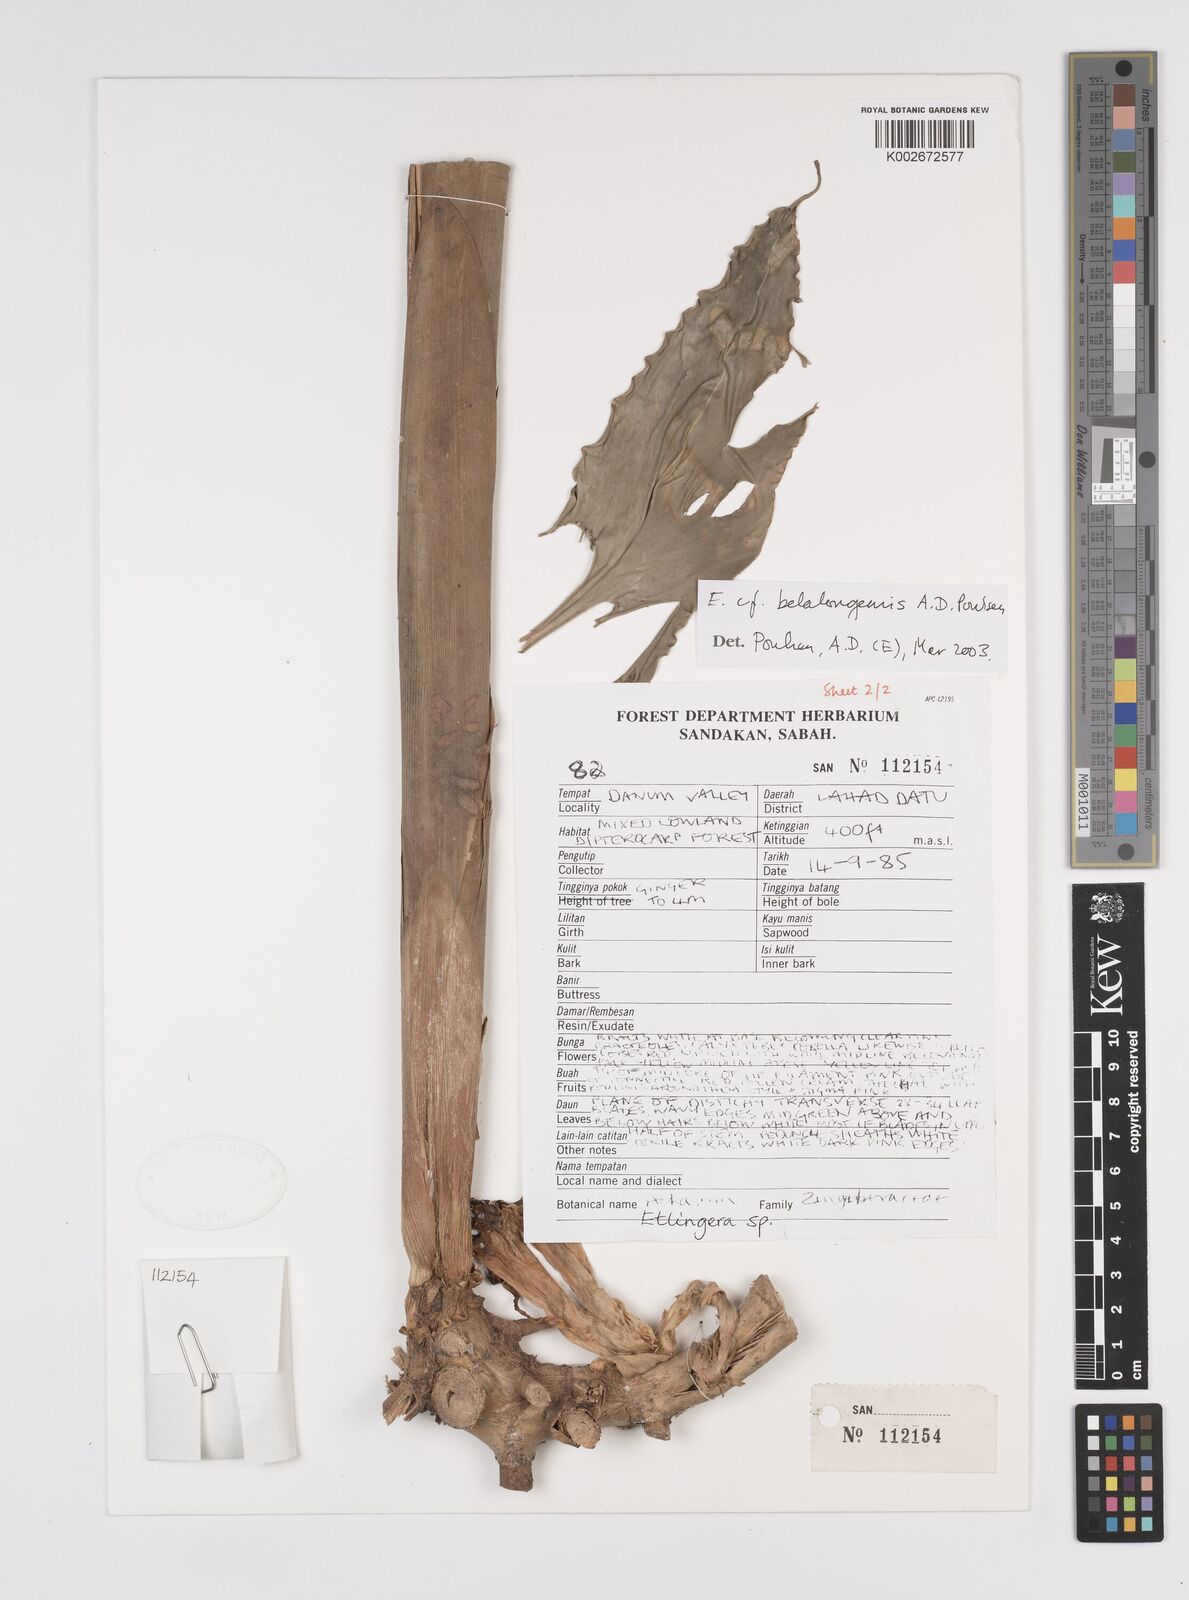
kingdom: Plantae
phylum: Tracheophyta
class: Liliopsida
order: Zingiberales
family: Zingiberaceae
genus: Etlingera
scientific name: Etlingera belalongensis
